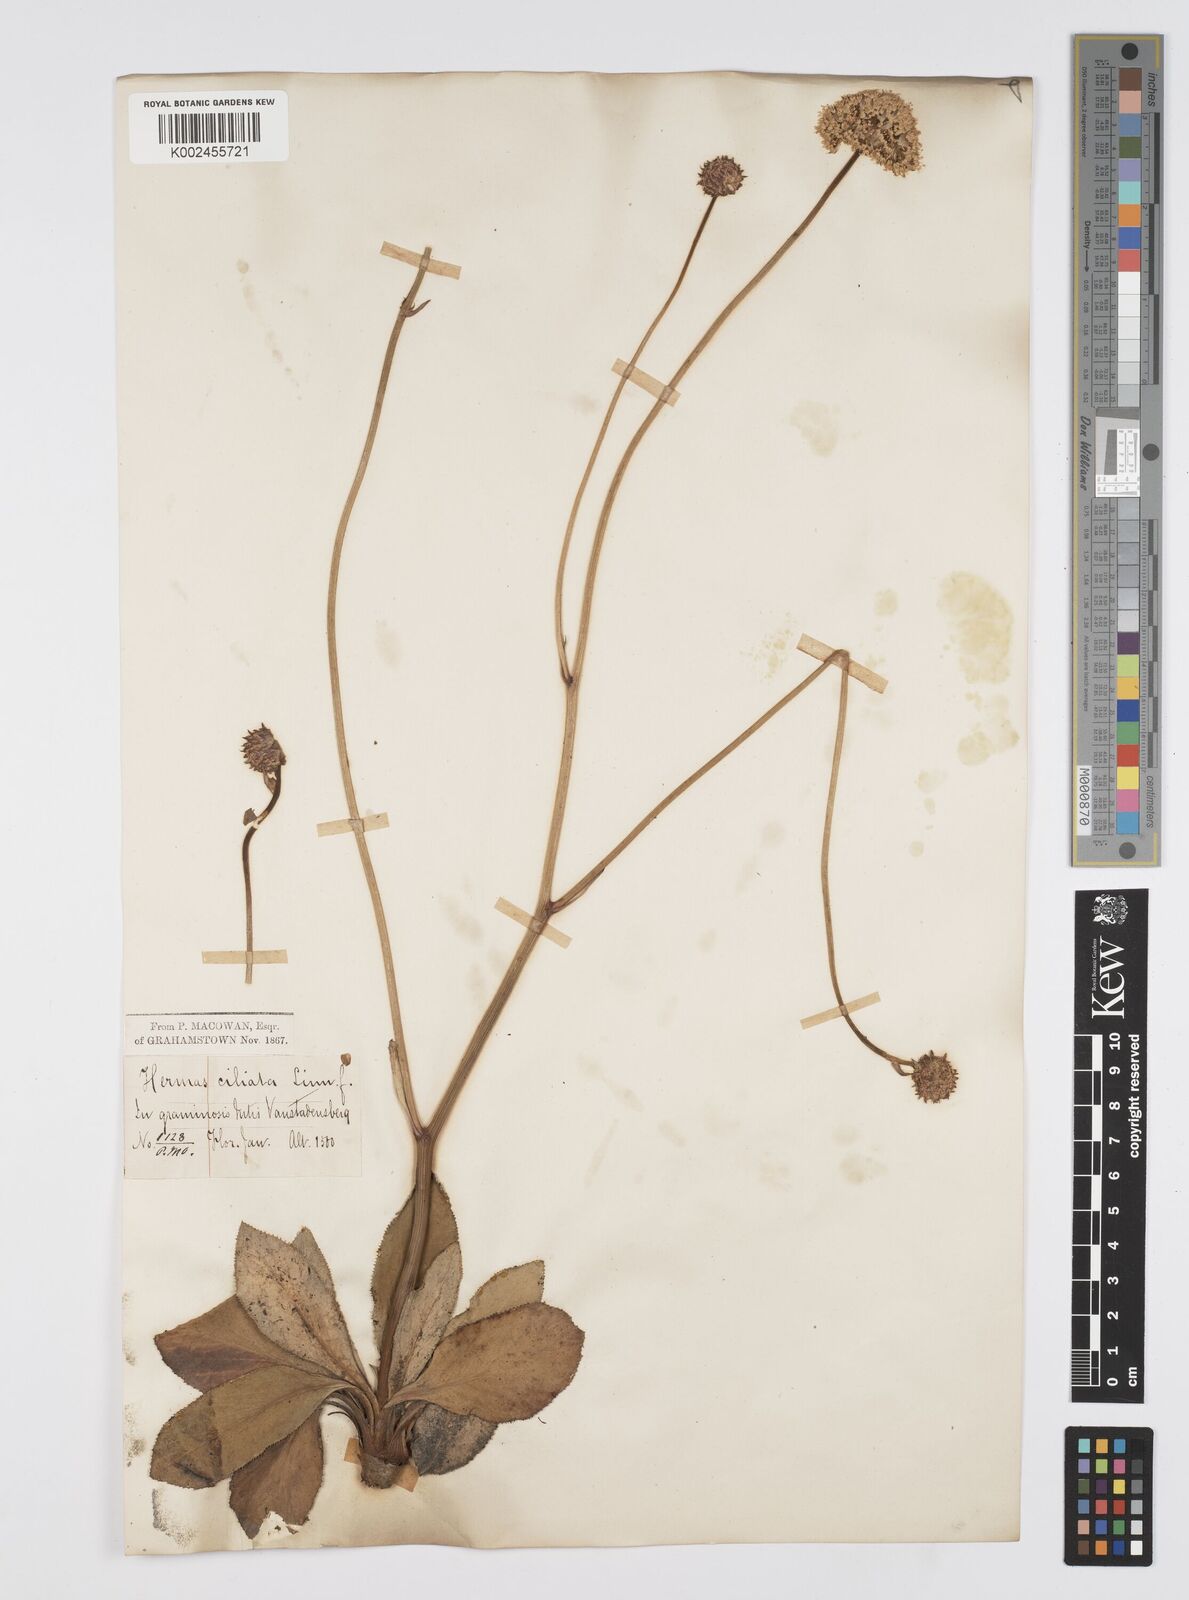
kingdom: Plantae
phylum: Tracheophyta
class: Magnoliopsida
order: Apiales
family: Apiaceae
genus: Hermas
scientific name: Hermas
